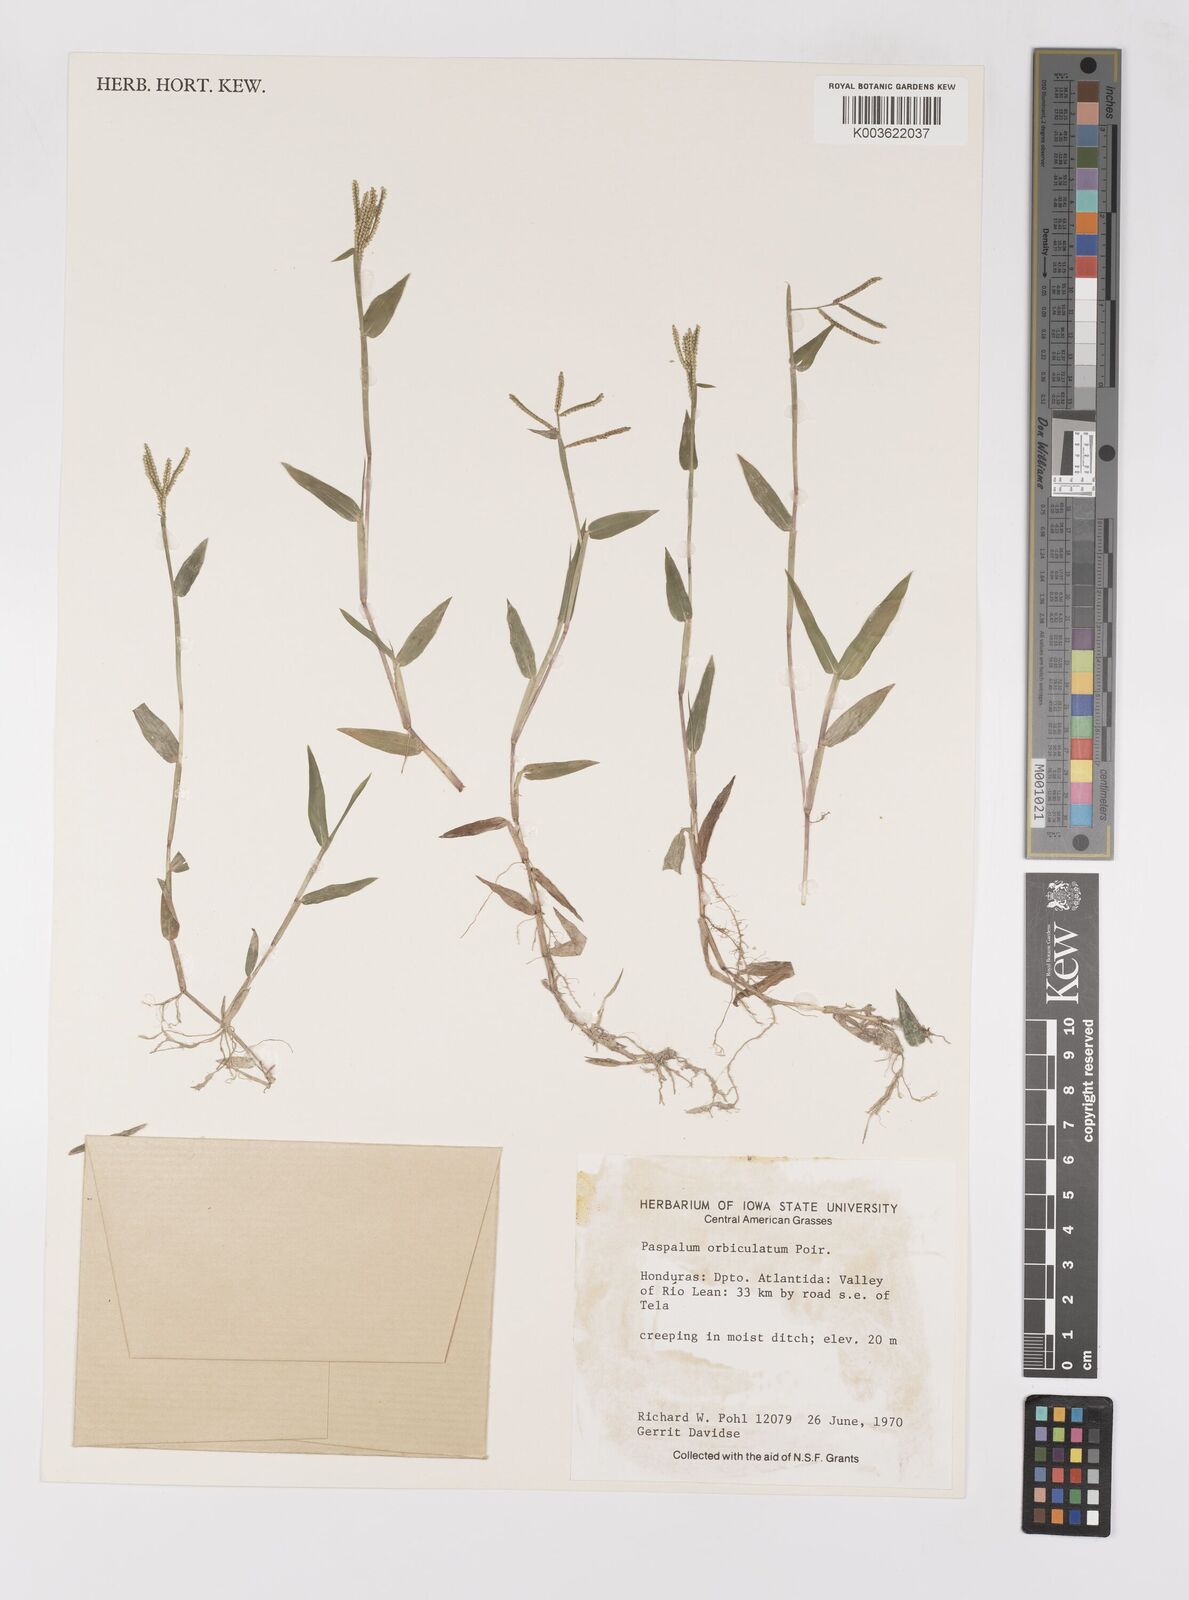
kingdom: Plantae
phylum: Tracheophyta
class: Liliopsida
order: Poales
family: Poaceae
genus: Paspalum
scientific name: Paspalum orbiculatum
